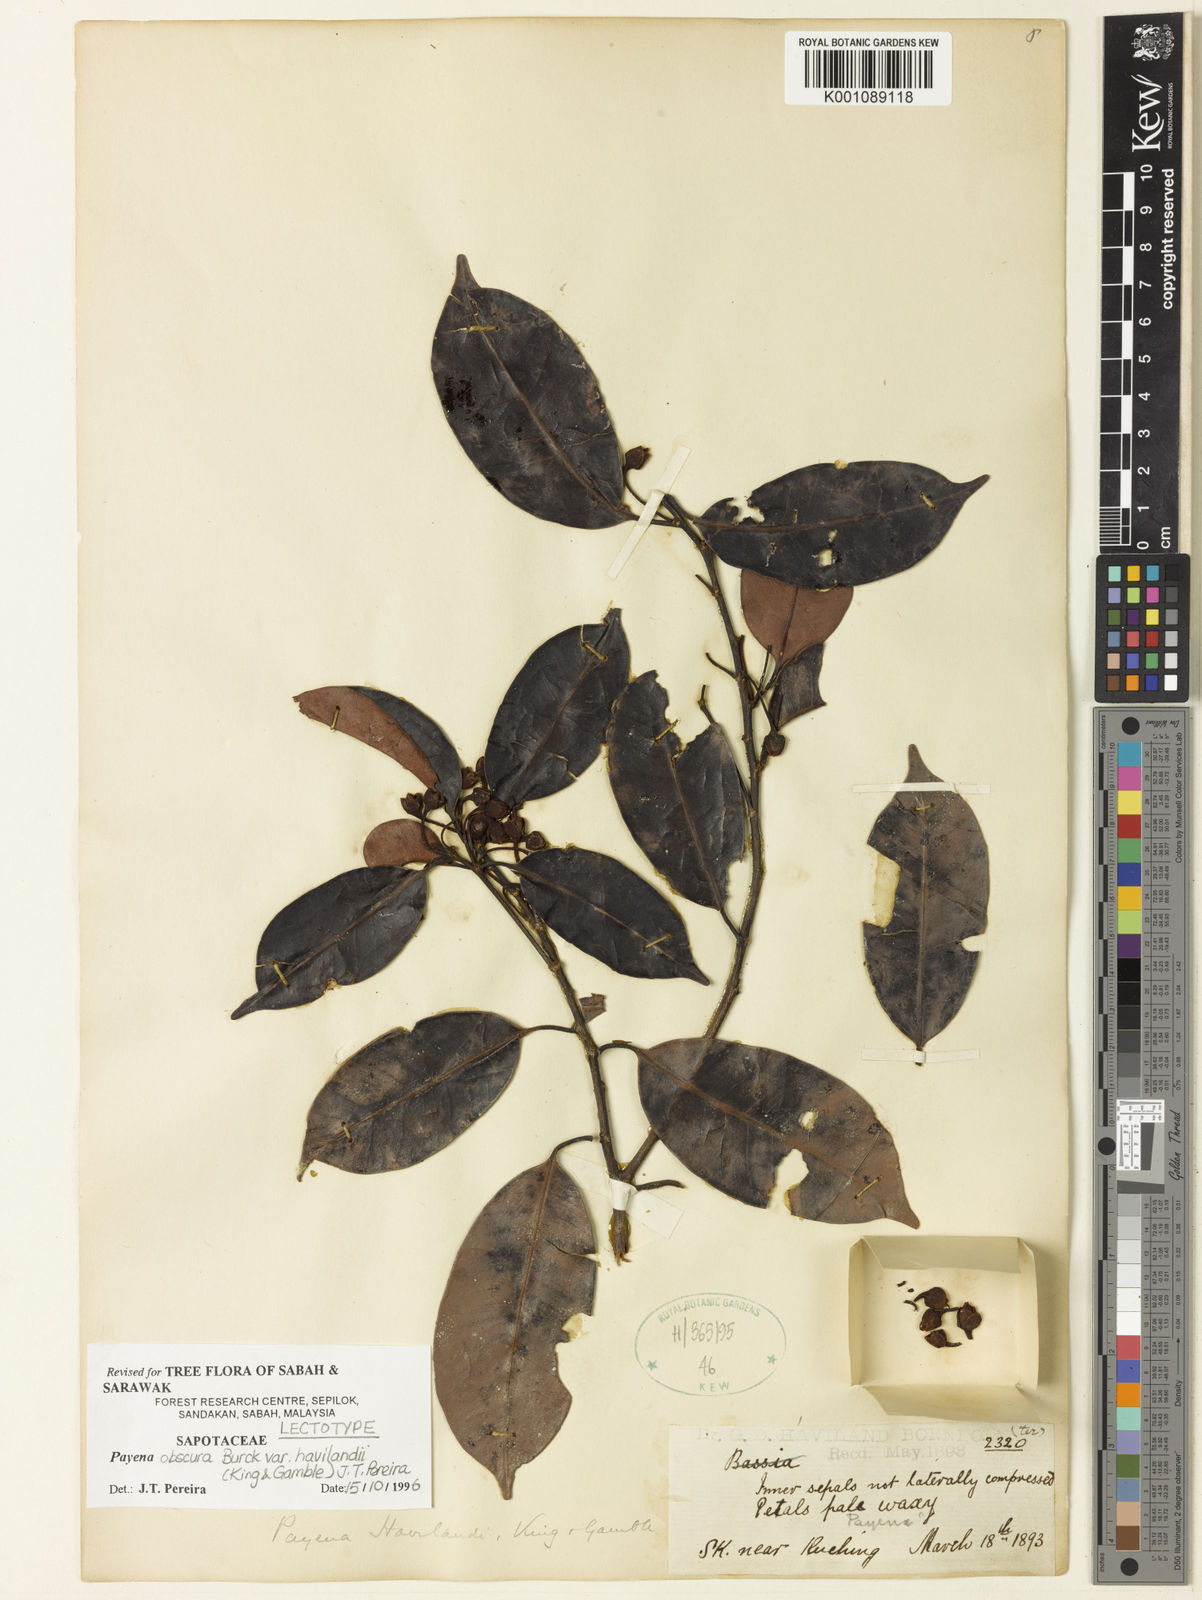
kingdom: Plantae
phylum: Tracheophyta
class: Magnoliopsida
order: Ericales
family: Sapotaceae
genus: Payena
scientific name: Payena obscura
